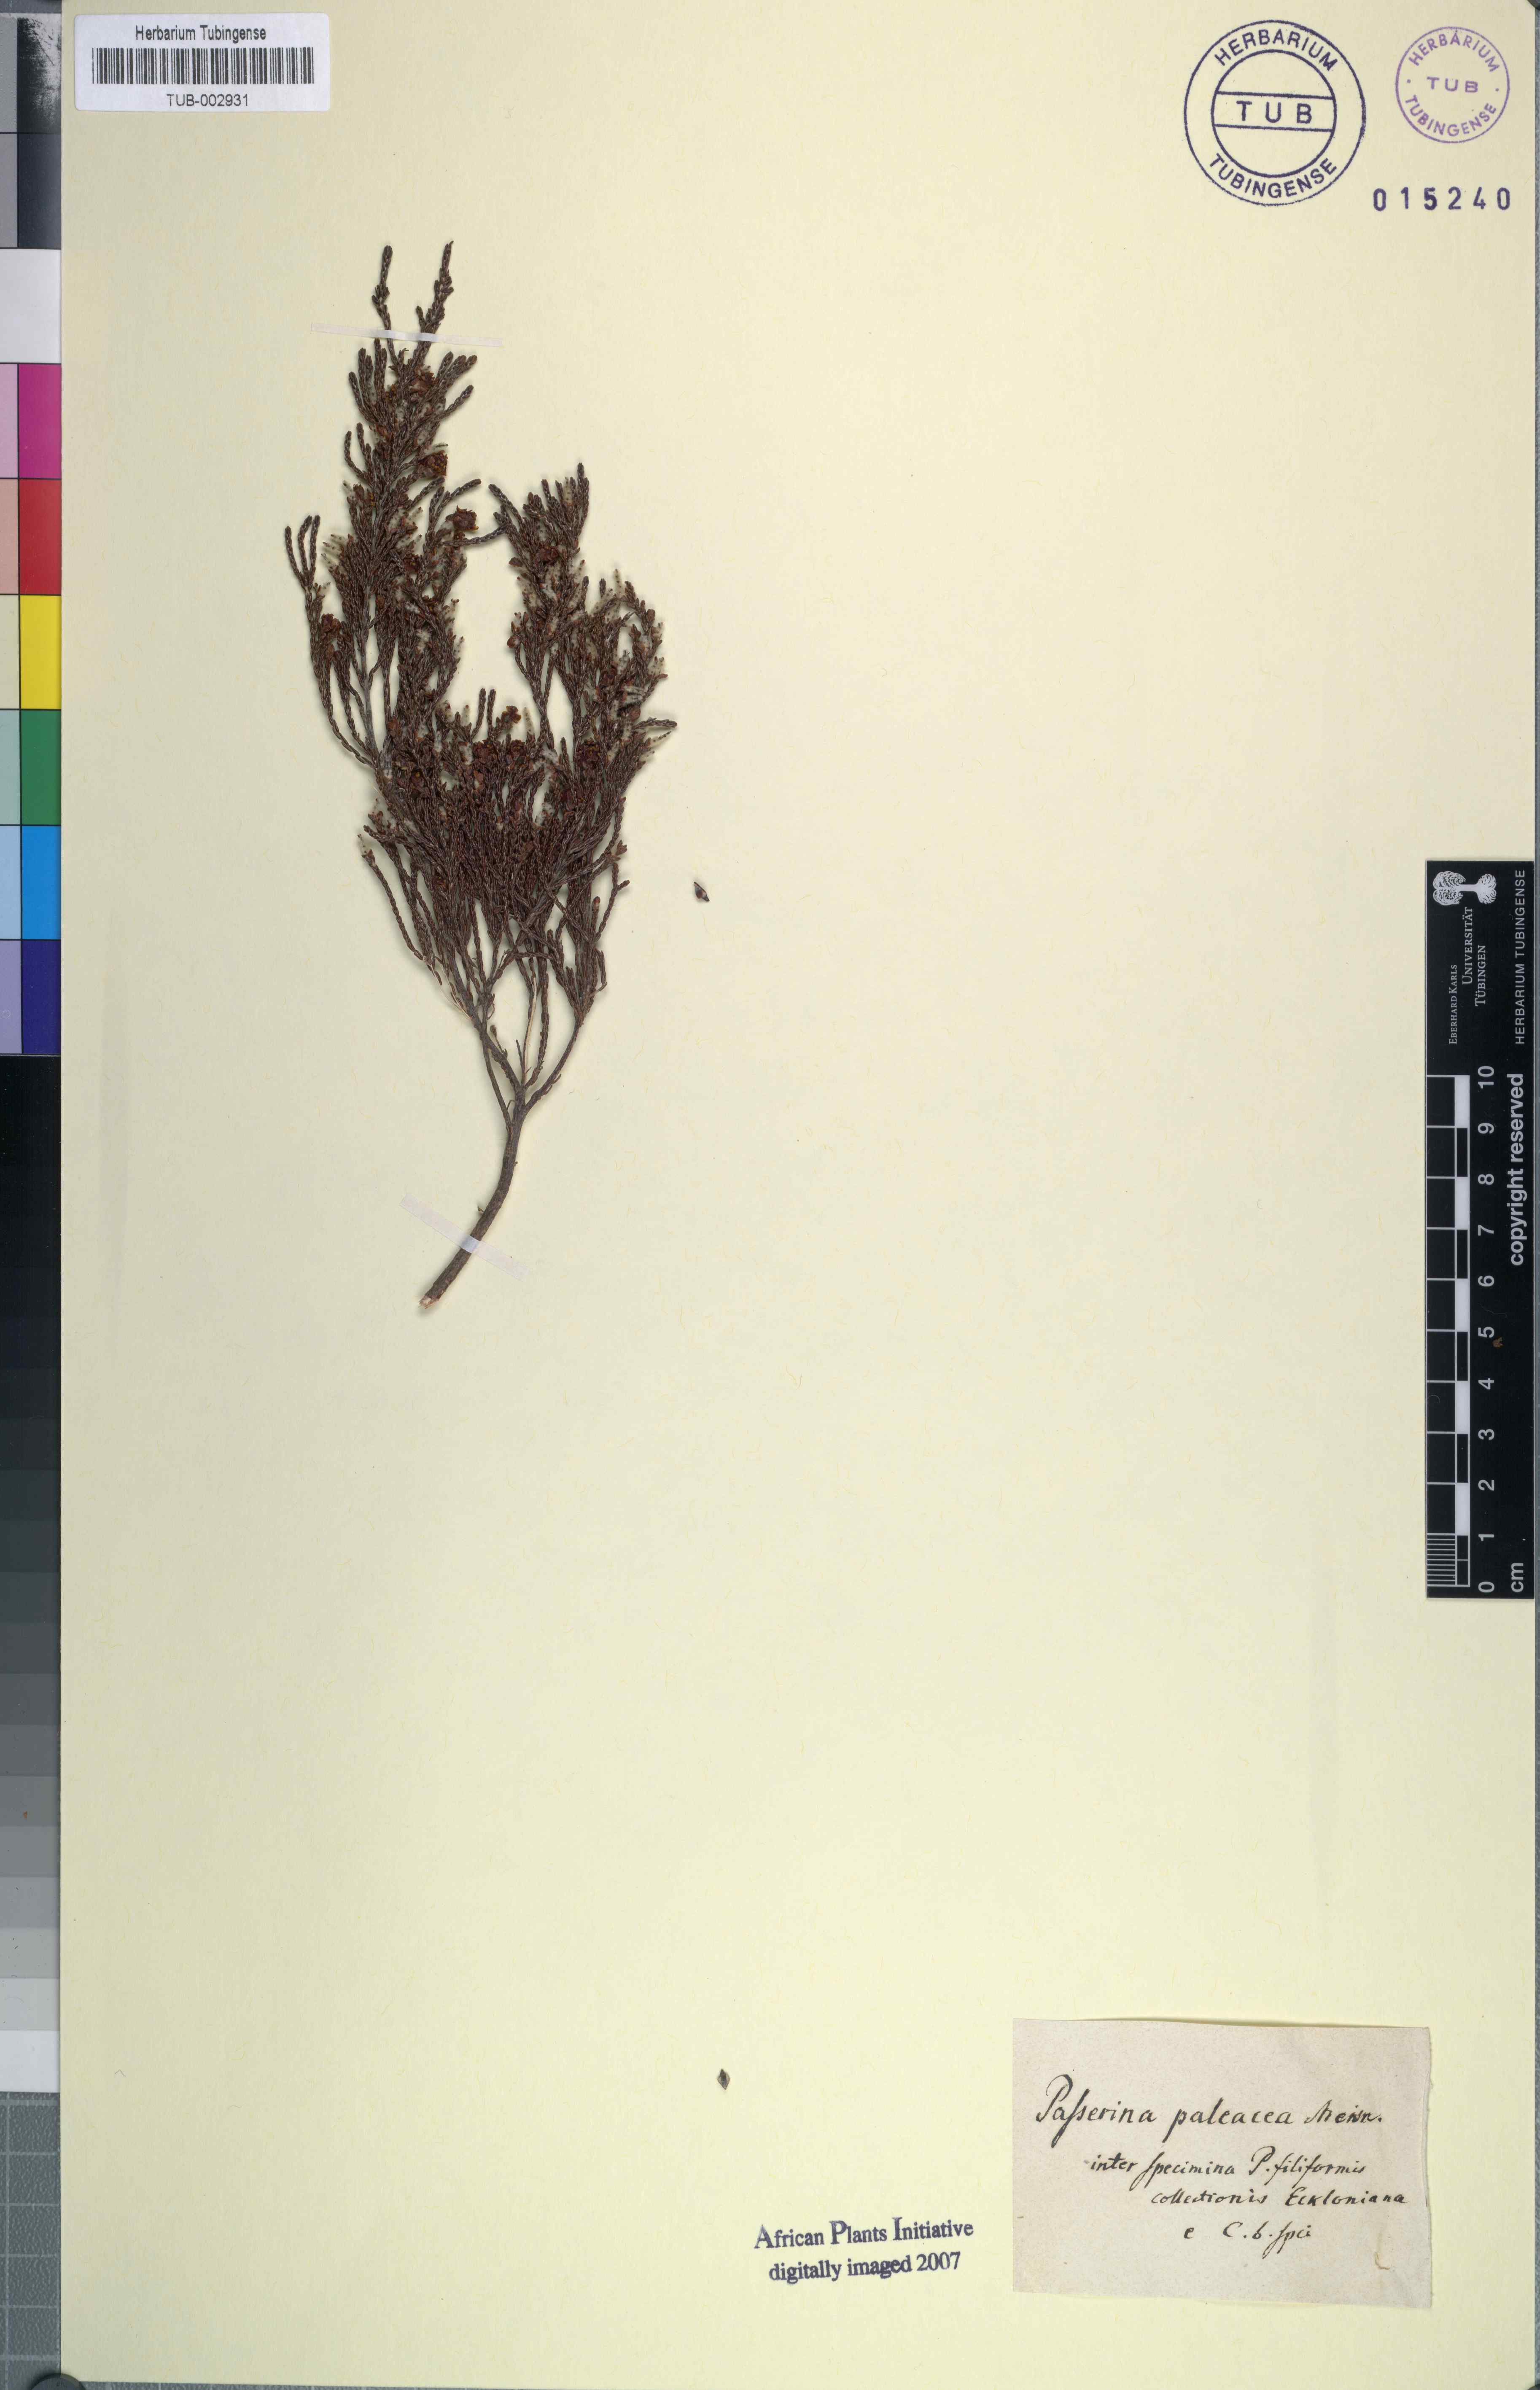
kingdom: Plantae
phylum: Tracheophyta
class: Magnoliopsida
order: Malvales
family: Thymelaeaceae
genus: Passerina
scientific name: Passerina paleacea
